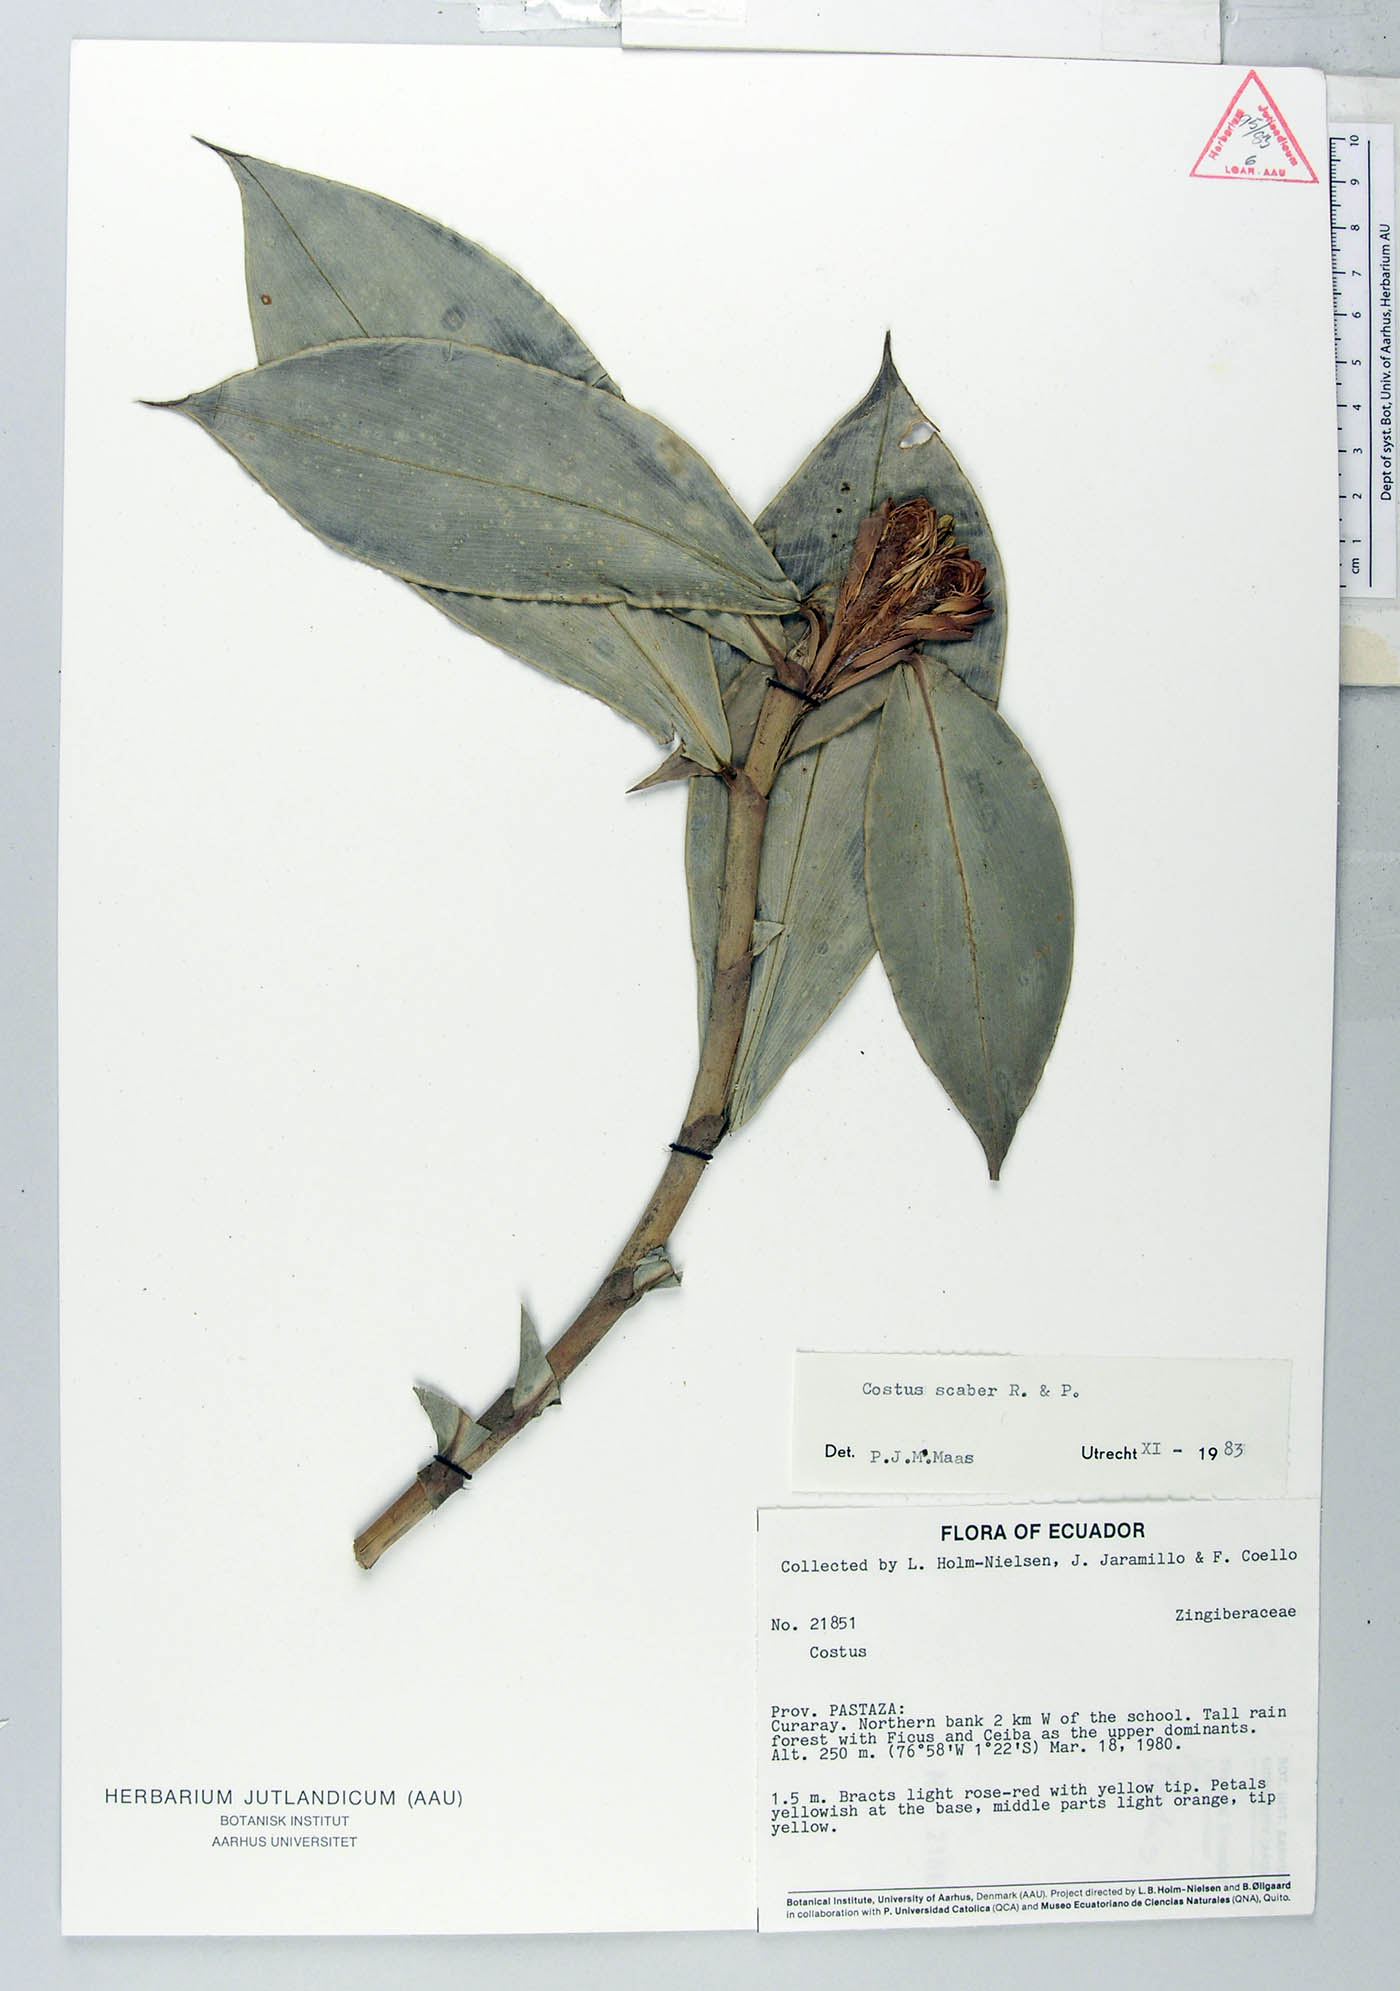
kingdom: Plantae
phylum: Tracheophyta
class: Liliopsida
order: Zingiberales
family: Costaceae
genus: Costus
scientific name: Costus scaber
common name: Spiral head ginger
